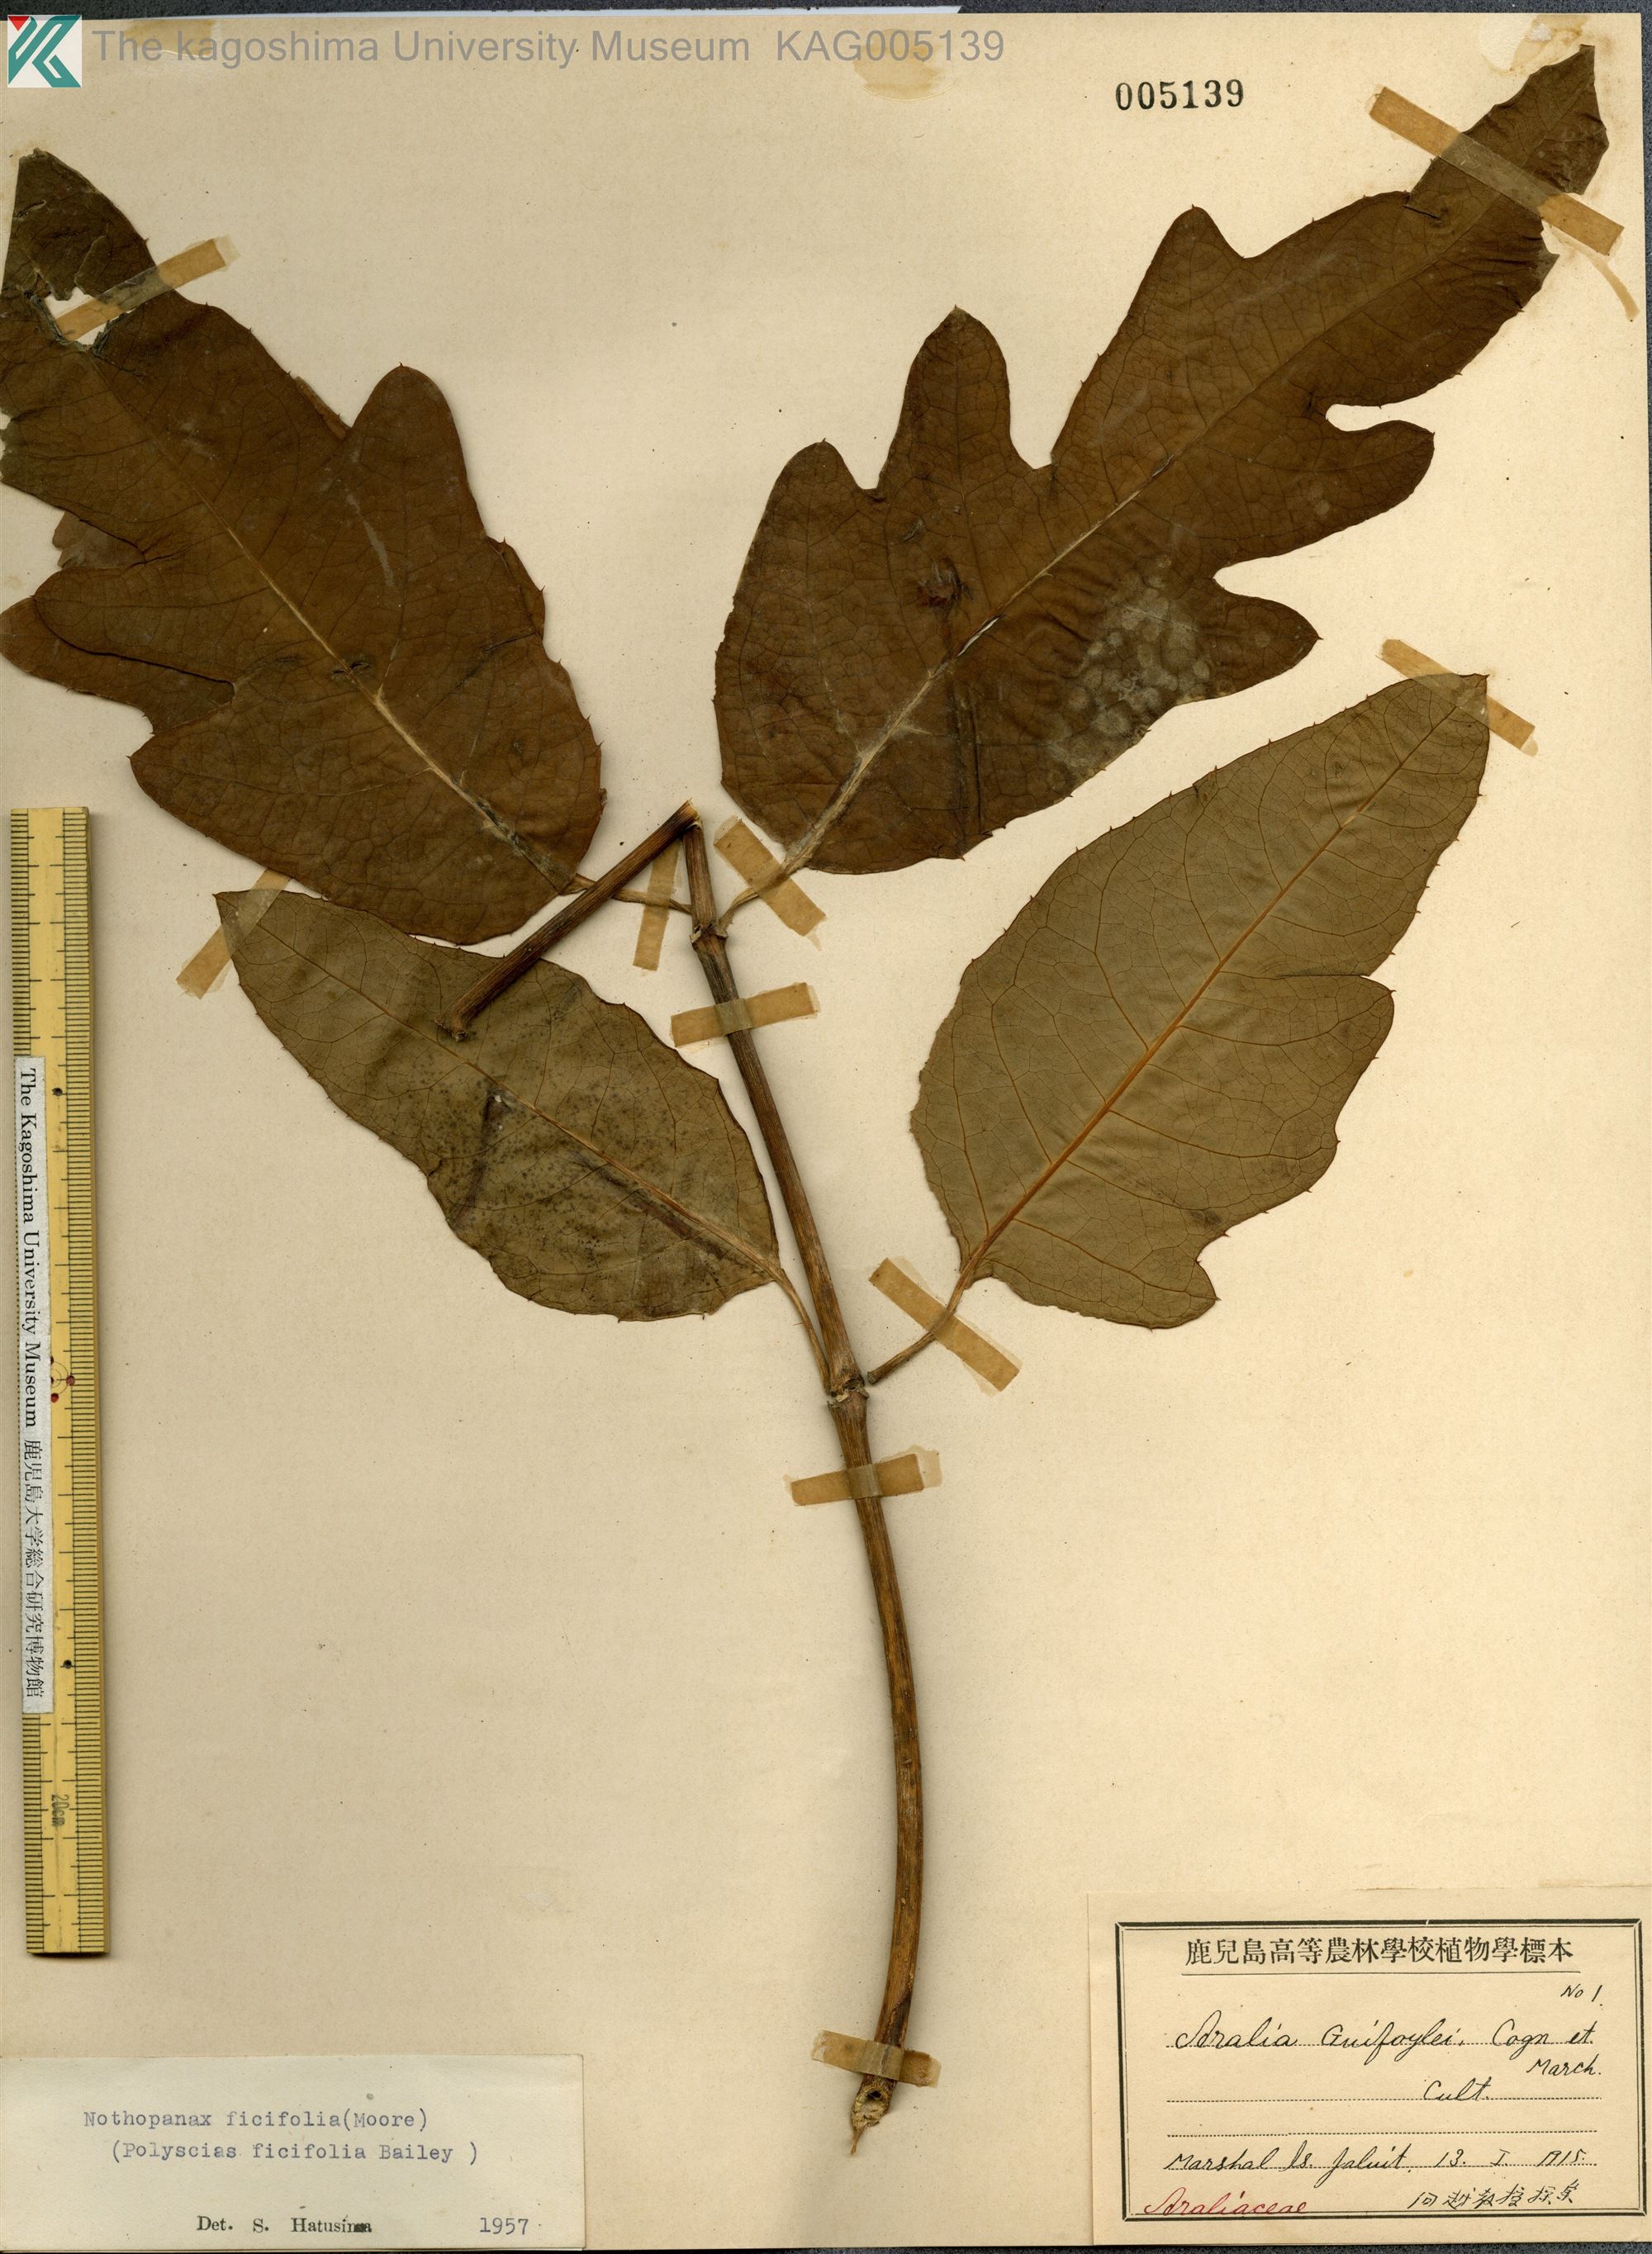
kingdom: Plantae
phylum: Tracheophyta
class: Magnoliopsida
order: Apiales
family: Araliaceae
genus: Polyscias
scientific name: Polyscias
